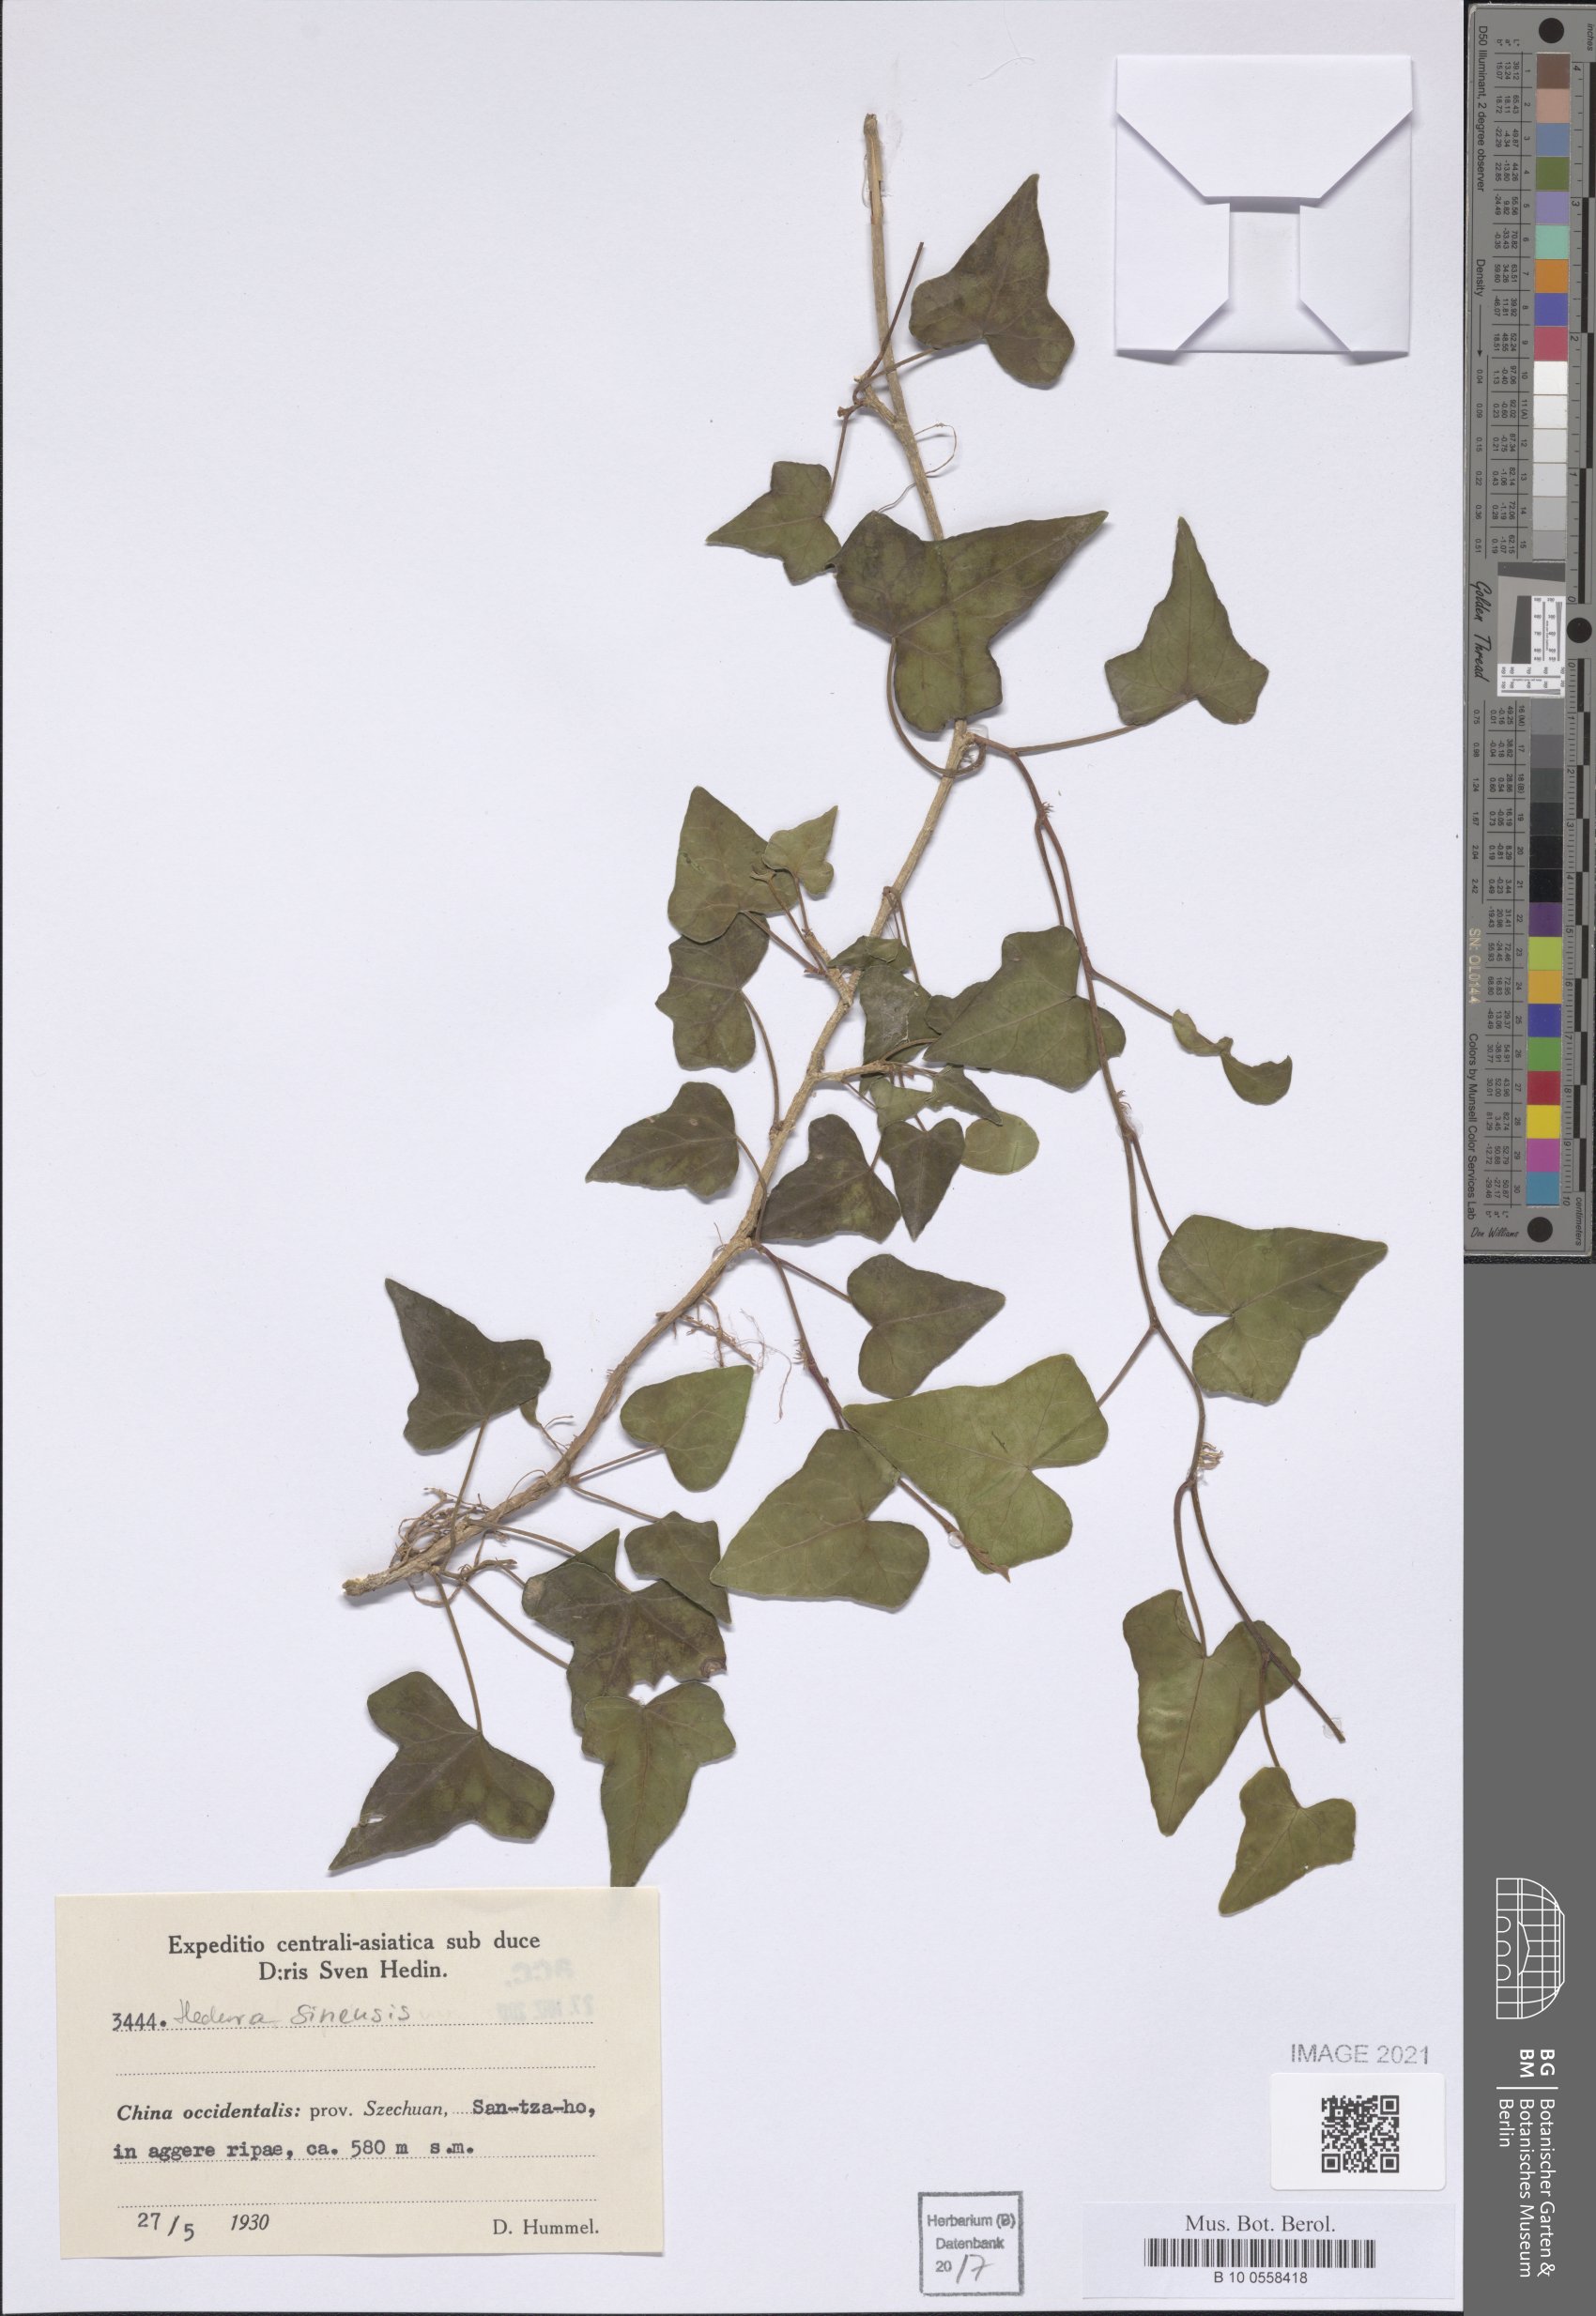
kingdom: Plantae
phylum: Tracheophyta
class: Magnoliopsida
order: Apiales
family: Araliaceae
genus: Hedera
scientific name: Hedera sinensis
